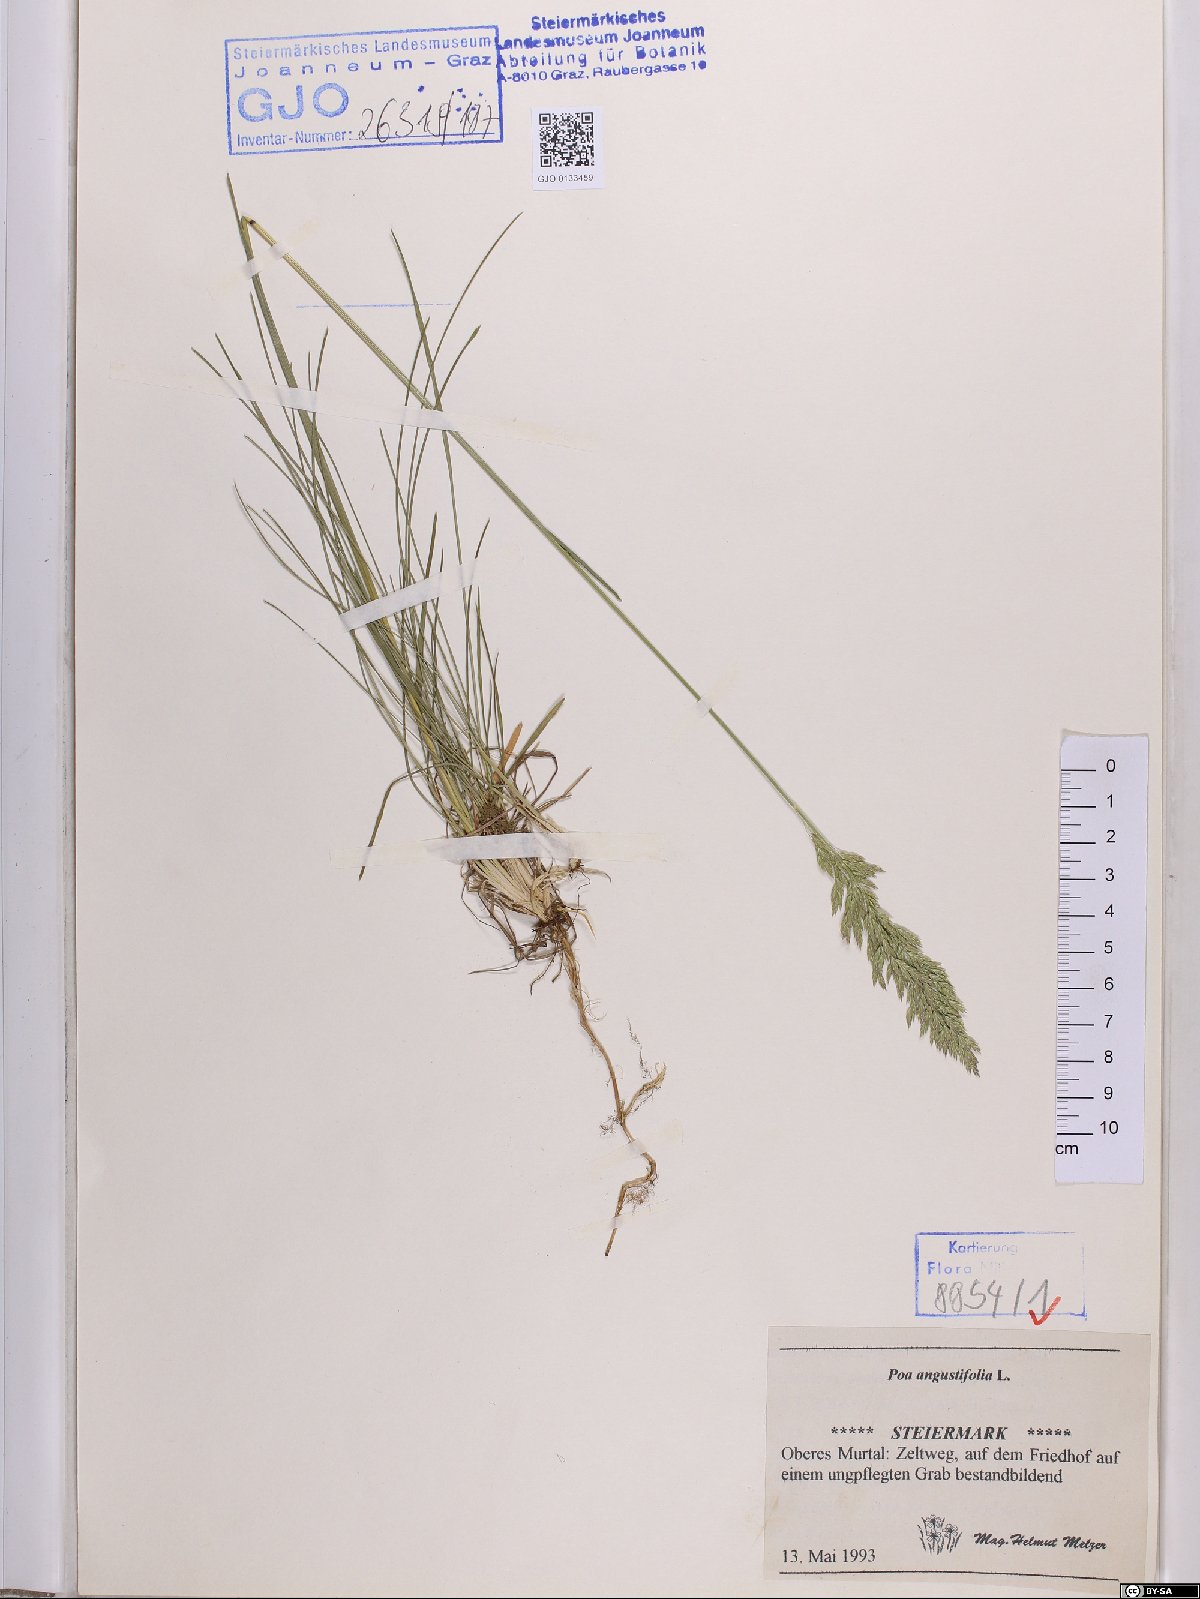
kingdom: Plantae
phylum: Tracheophyta
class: Liliopsida
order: Poales
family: Poaceae
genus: Poa
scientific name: Poa angustifolia
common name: Narrow-leaved meadow-grass
